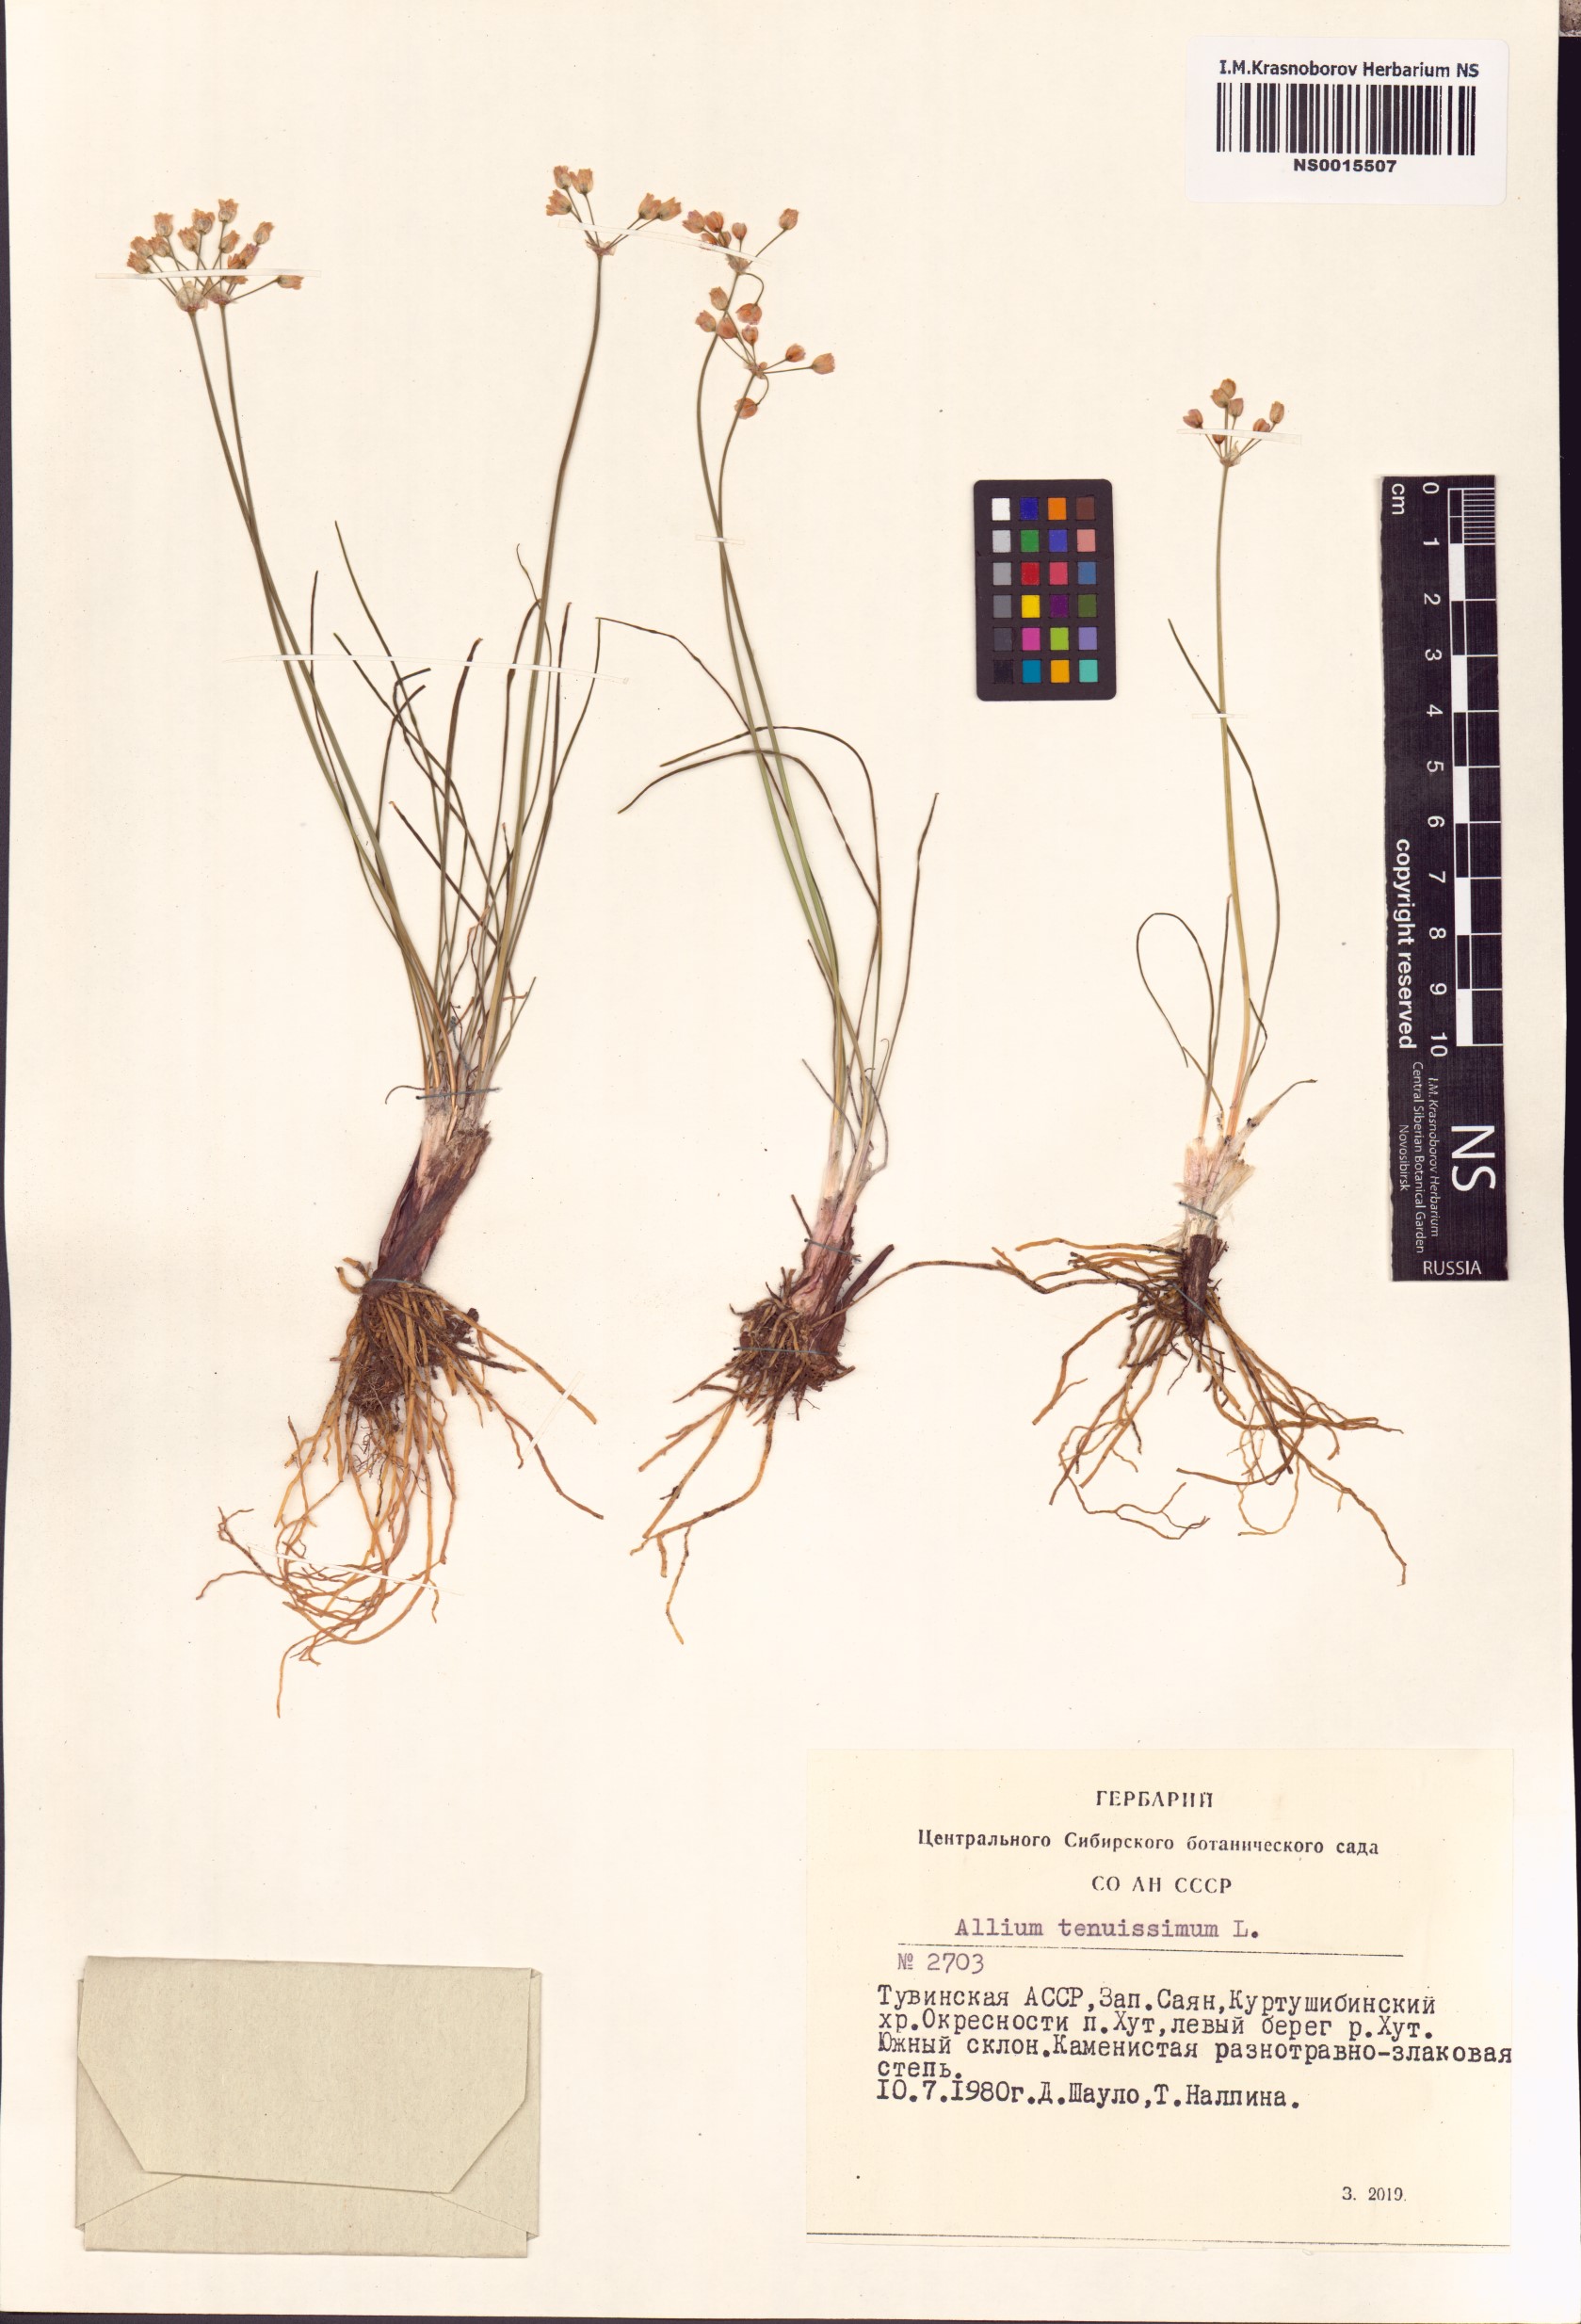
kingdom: Plantae
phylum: Tracheophyta
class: Liliopsida
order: Asparagales
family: Amaryllidaceae
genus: Allium
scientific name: Allium tenuissimum
